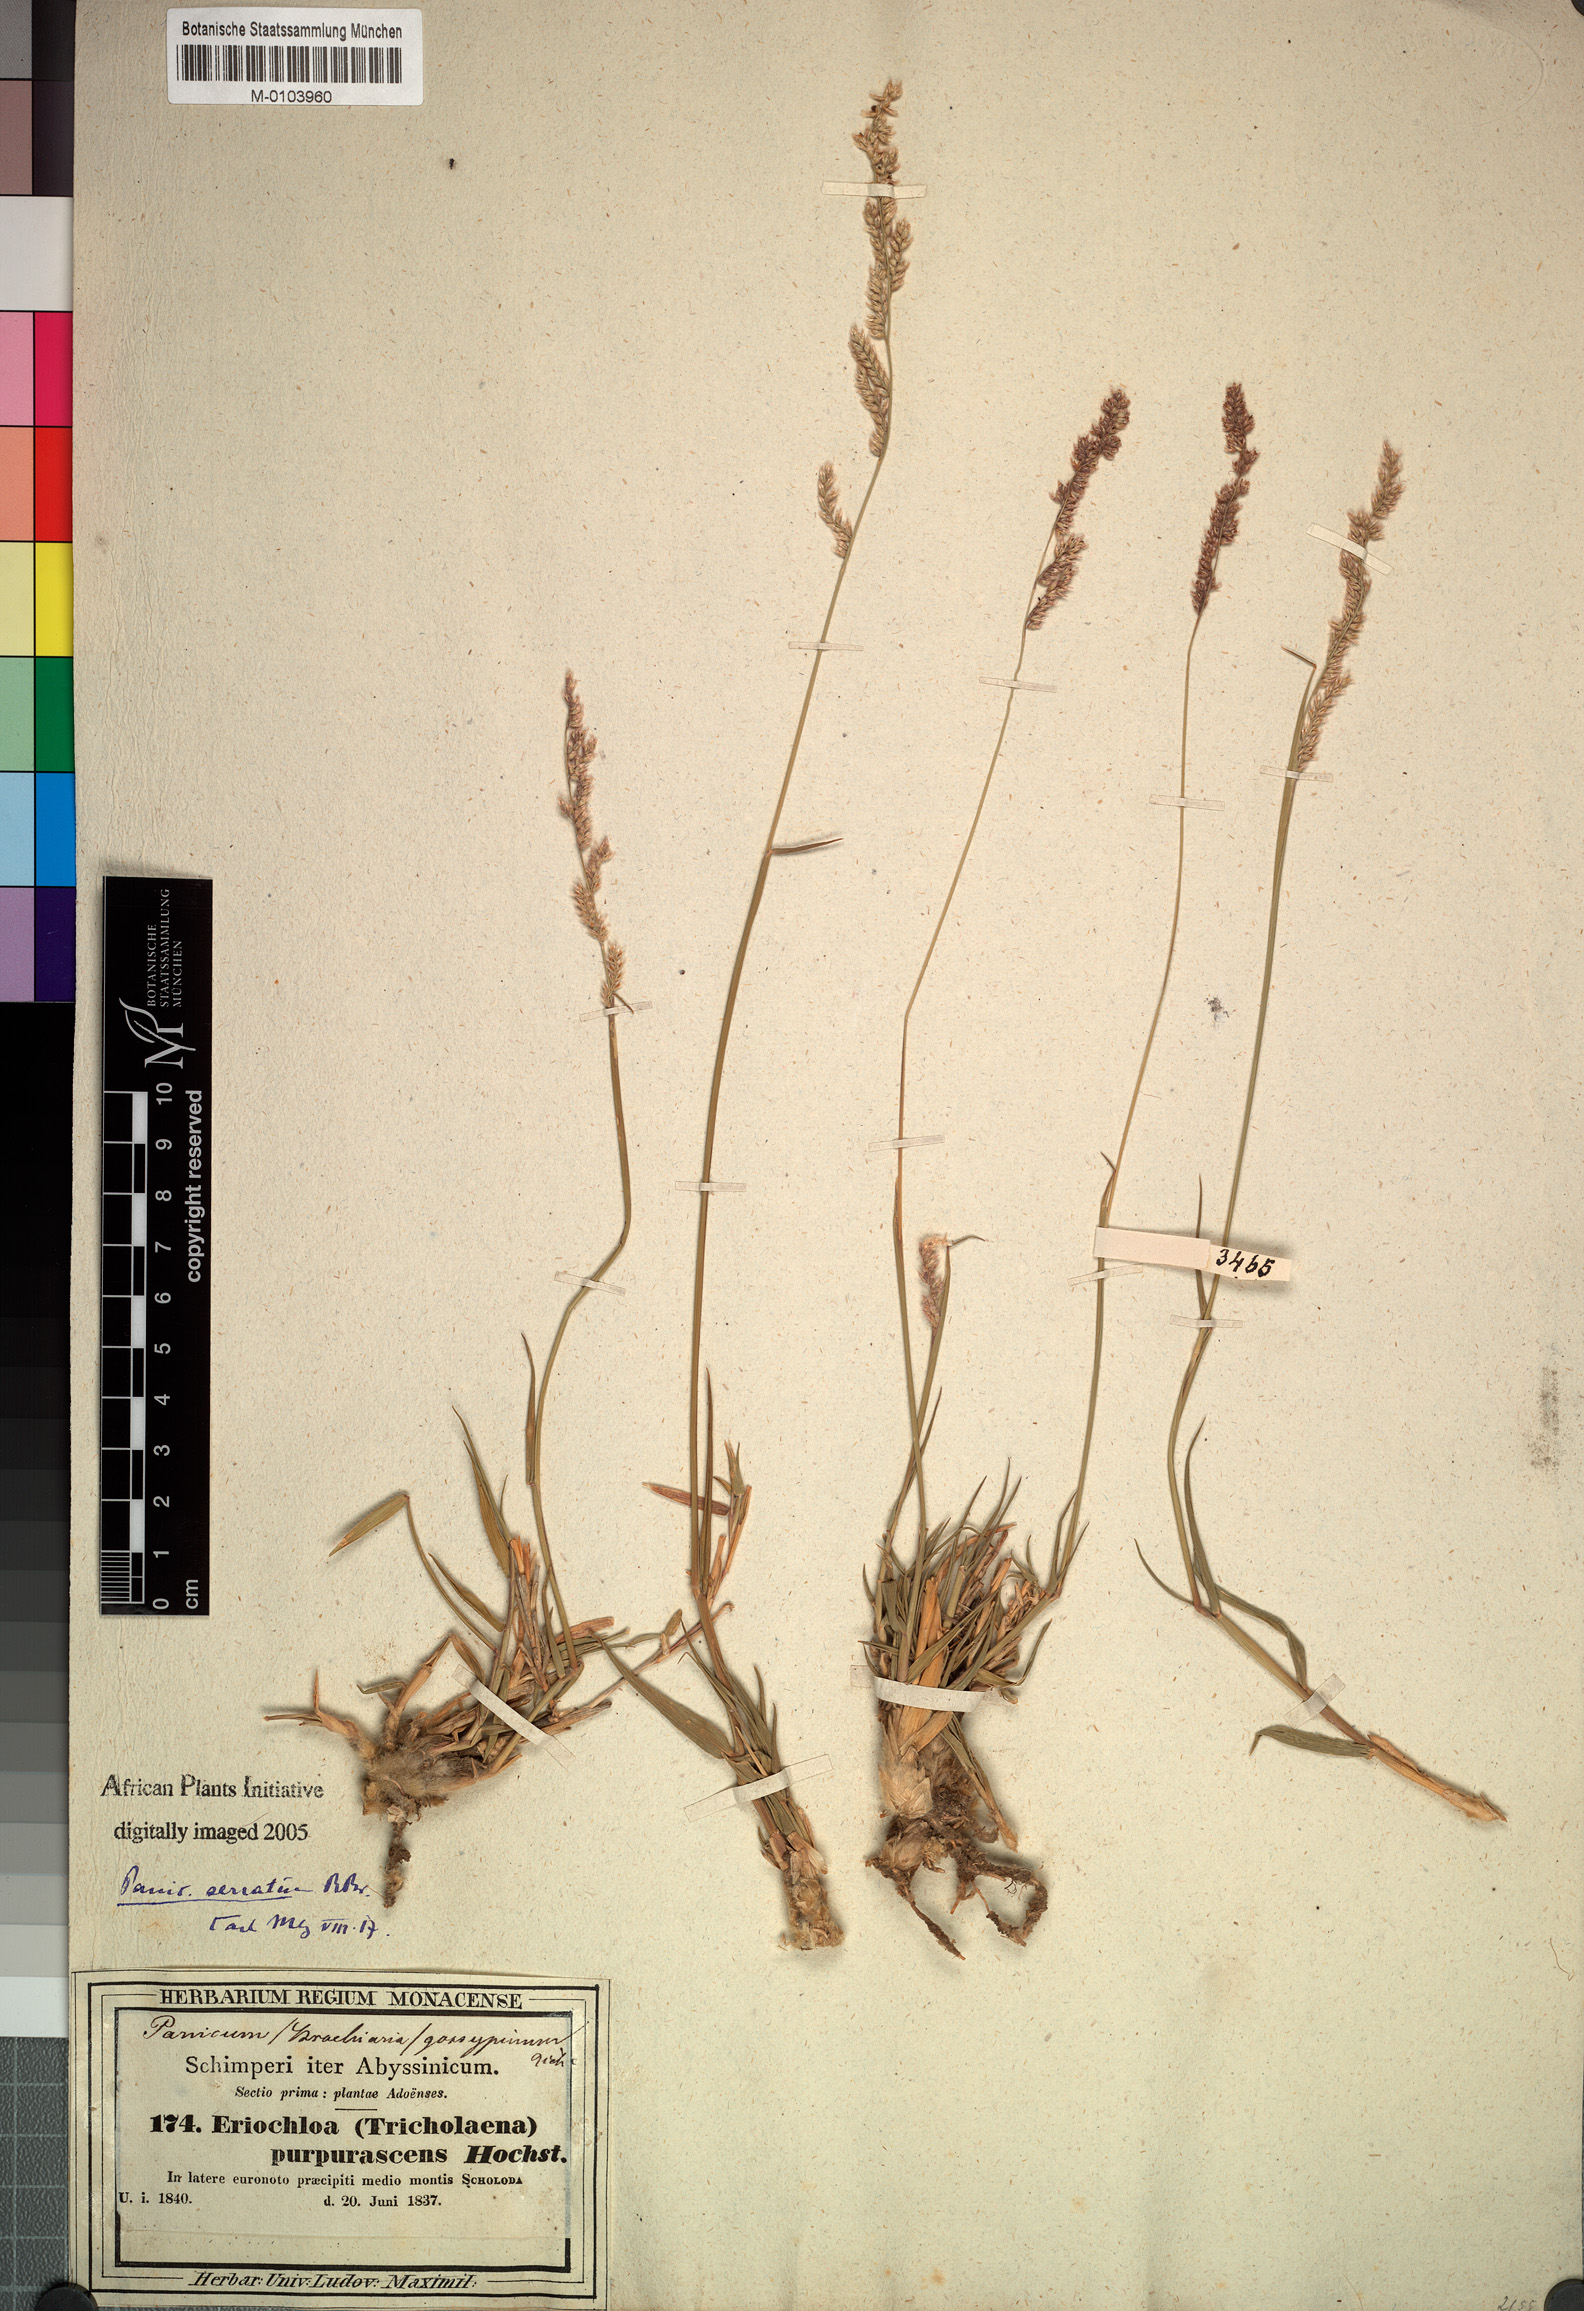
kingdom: Plantae
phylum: Tracheophyta
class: Liliopsida
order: Poales
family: Poaceae
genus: Urochloa
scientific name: Urochloa serrata
